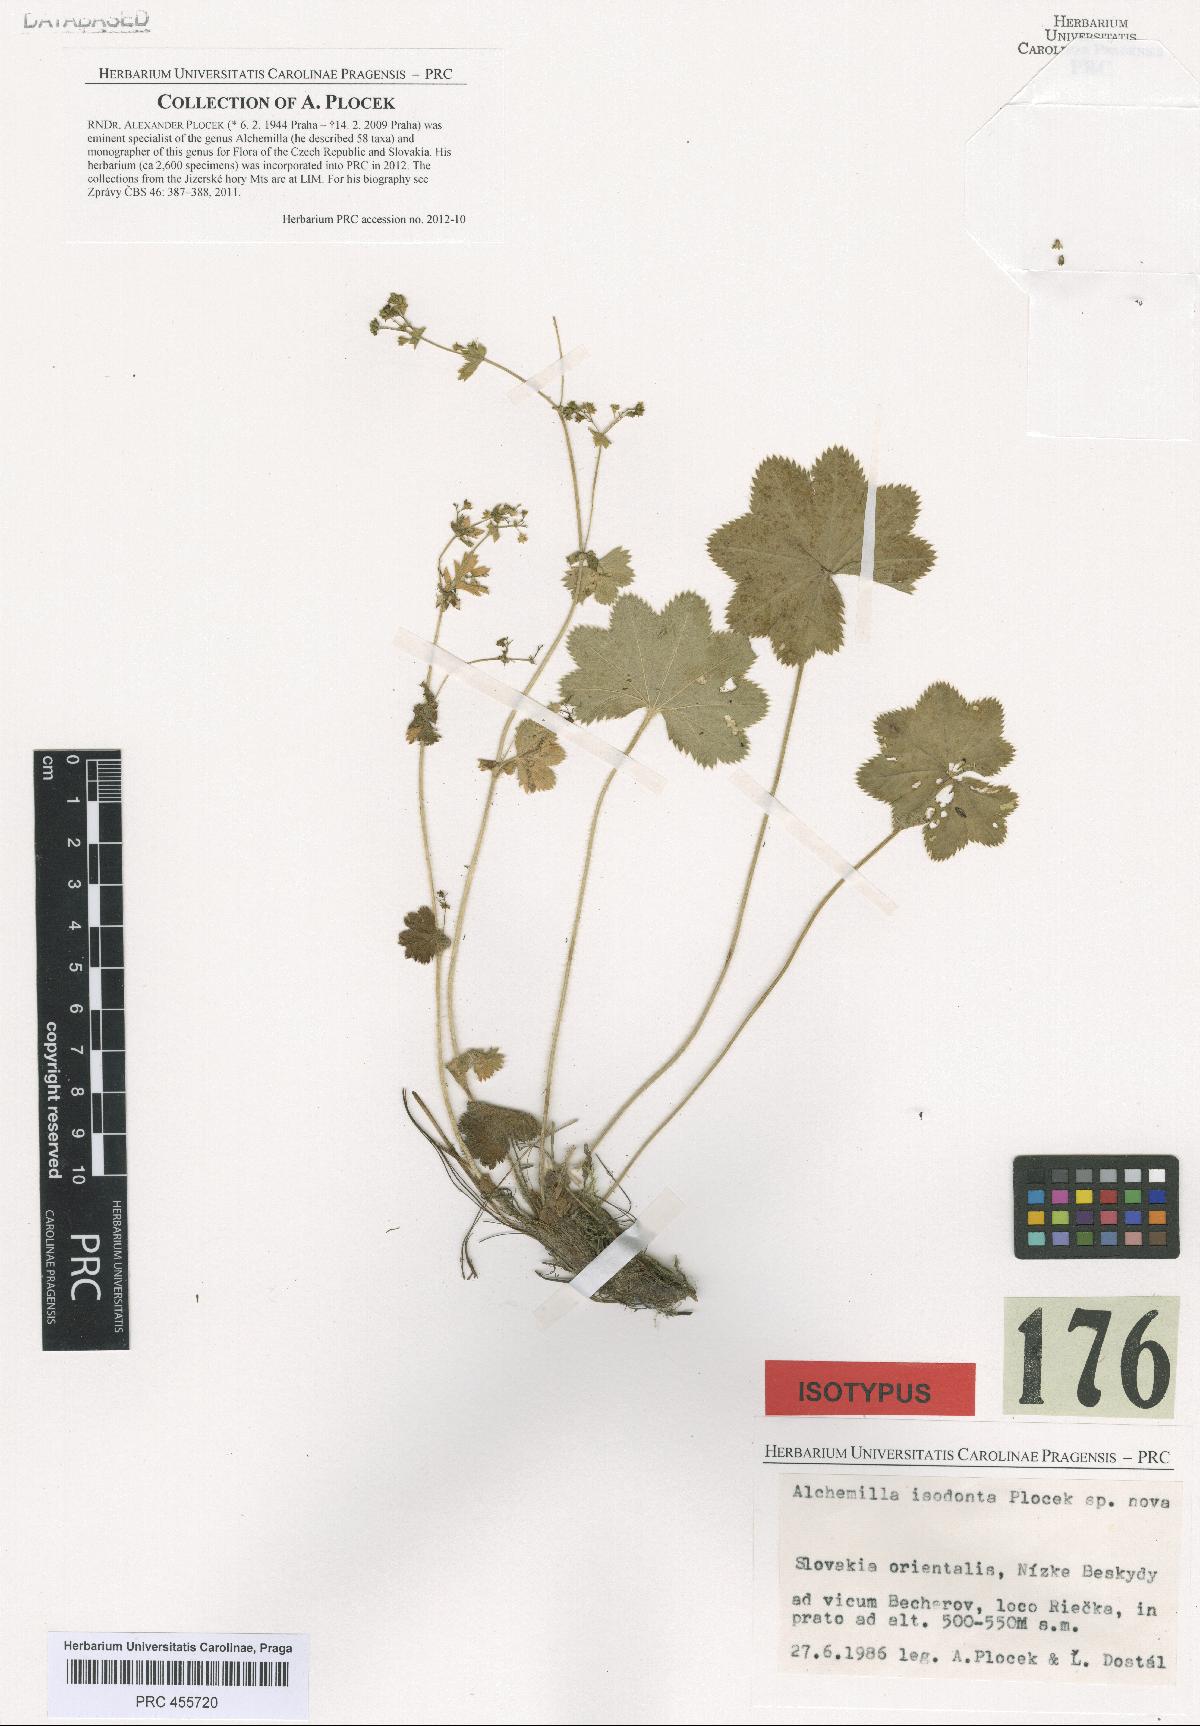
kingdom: Plantae
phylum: Tracheophyta
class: Magnoliopsida
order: Rosales
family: Rosaceae
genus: Alchemilla
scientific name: Alchemilla isodonta
